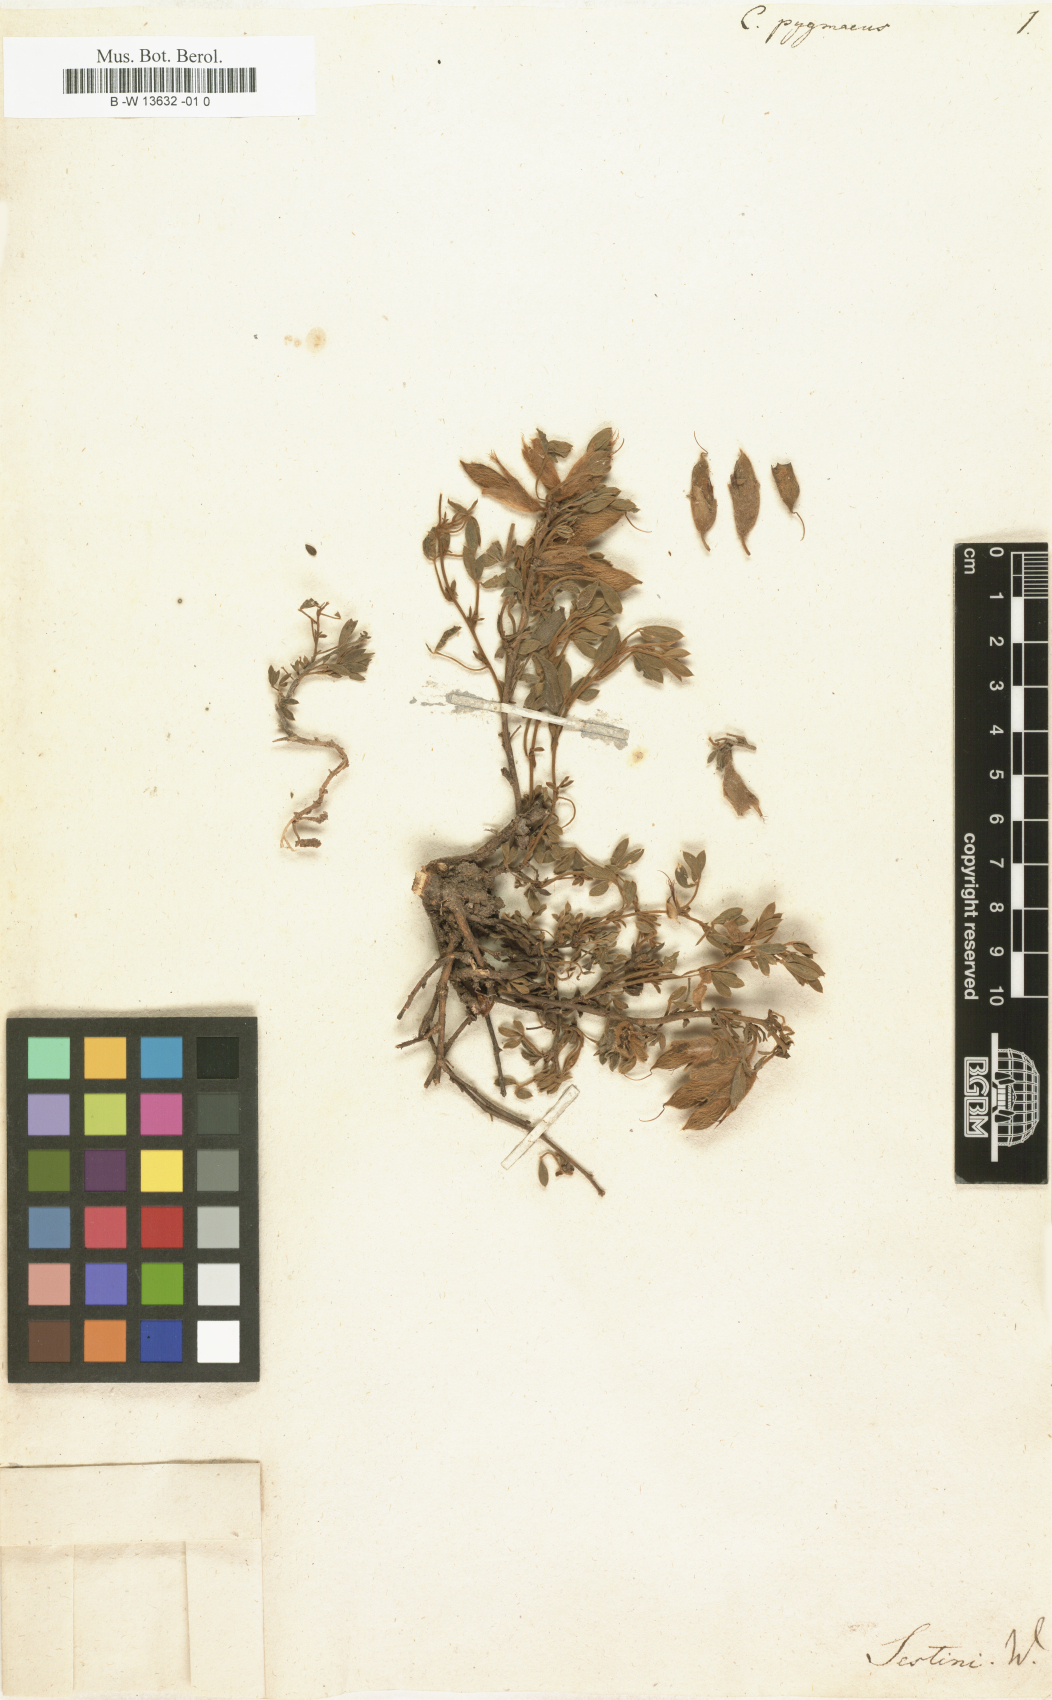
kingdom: Plantae
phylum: Tracheophyta
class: Magnoliopsida
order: Fabales
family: Fabaceae
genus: Chamaecytisus
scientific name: Chamaecytisus pygmaeus
